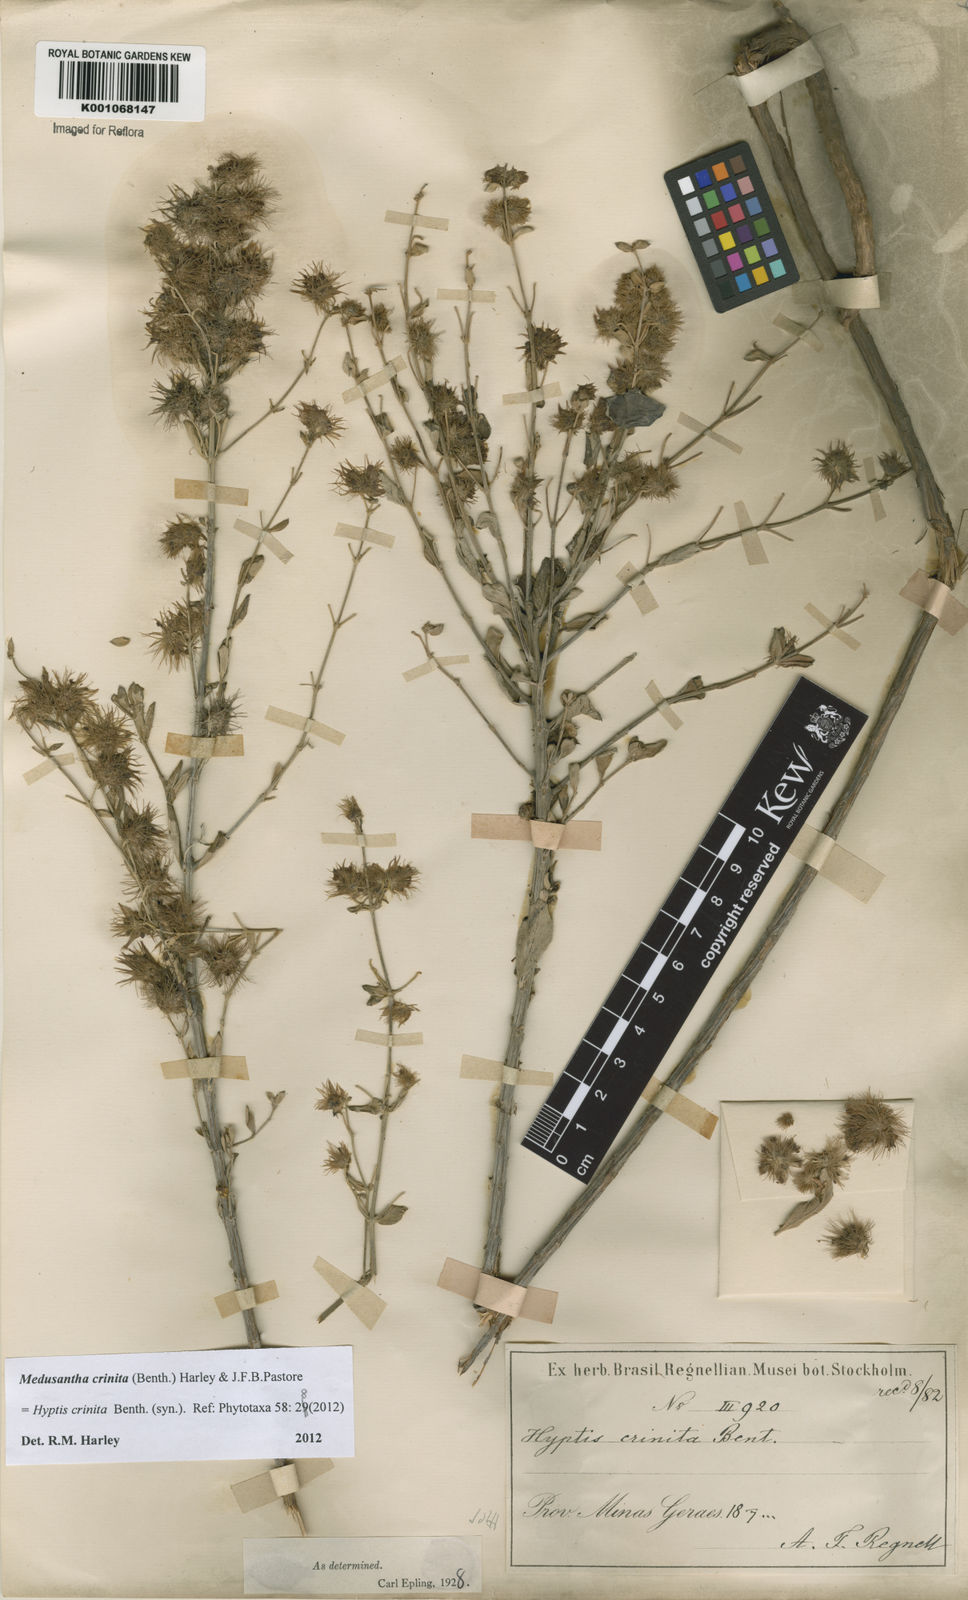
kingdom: Plantae
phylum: Tracheophyta
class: Magnoliopsida
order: Lamiales
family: Lamiaceae
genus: Medusantha
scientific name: Medusantha crinita
